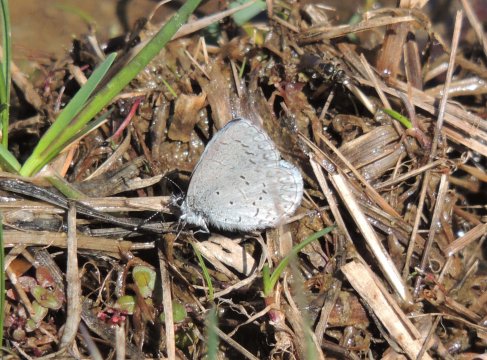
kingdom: Animalia
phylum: Arthropoda
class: Insecta
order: Lepidoptera
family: Lycaenidae
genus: Celastrina
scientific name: Celastrina ladon
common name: Echo Azure
